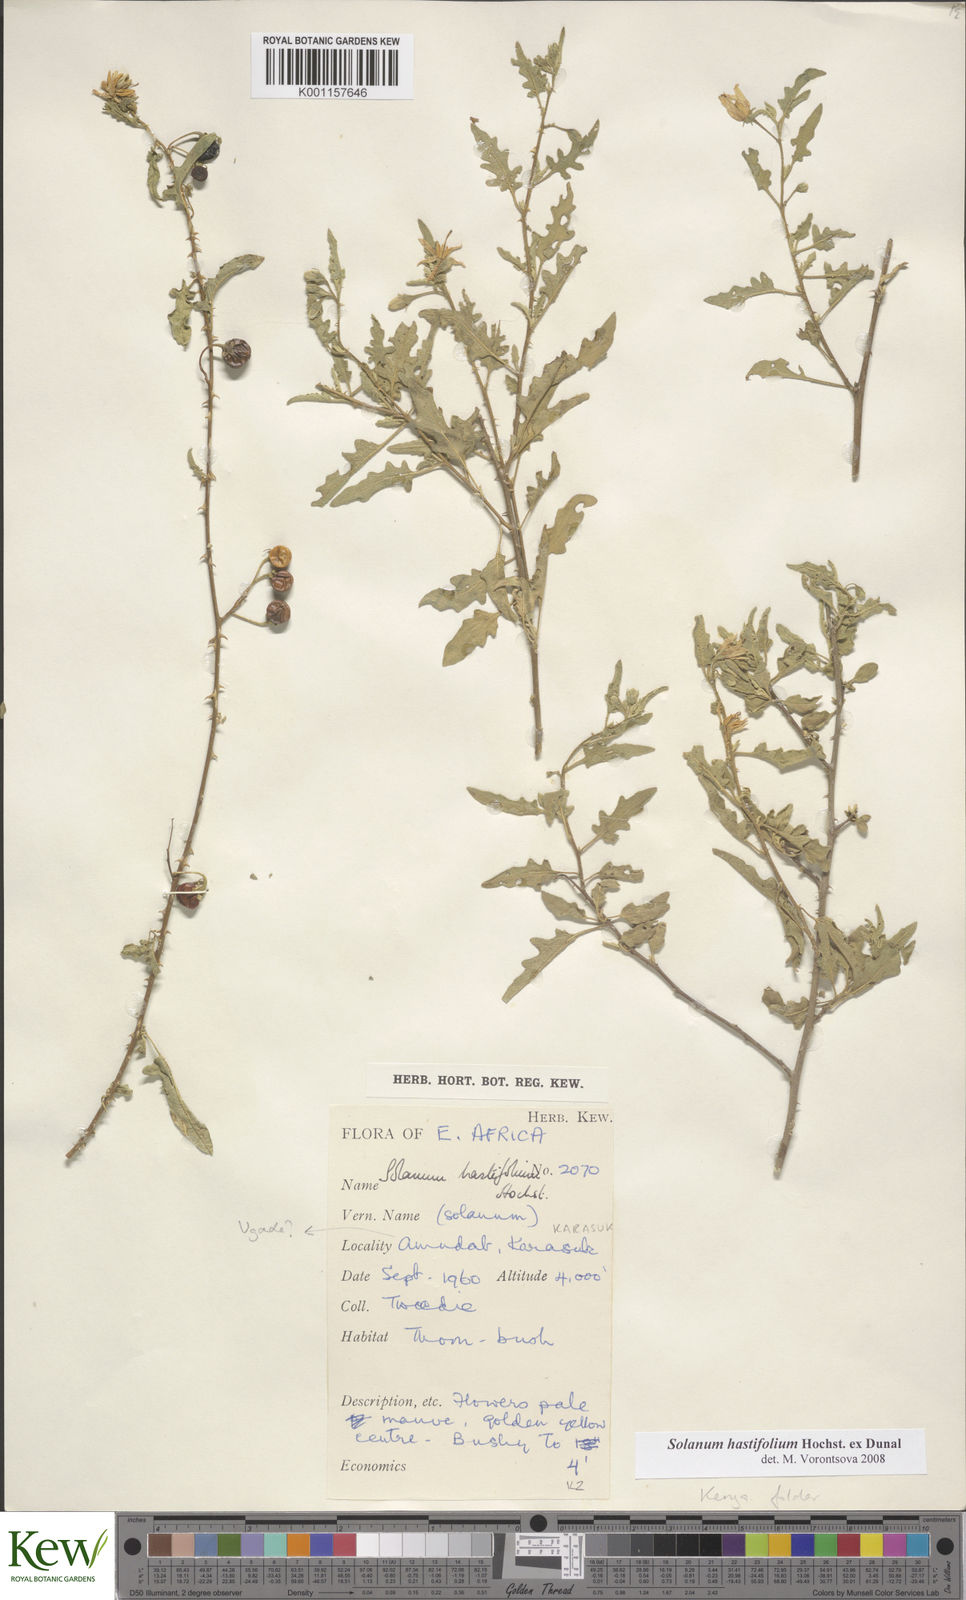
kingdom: Plantae
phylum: Tracheophyta
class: Magnoliopsida
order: Solanales
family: Solanaceae
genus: Solanum
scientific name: Solanum hastifolium
